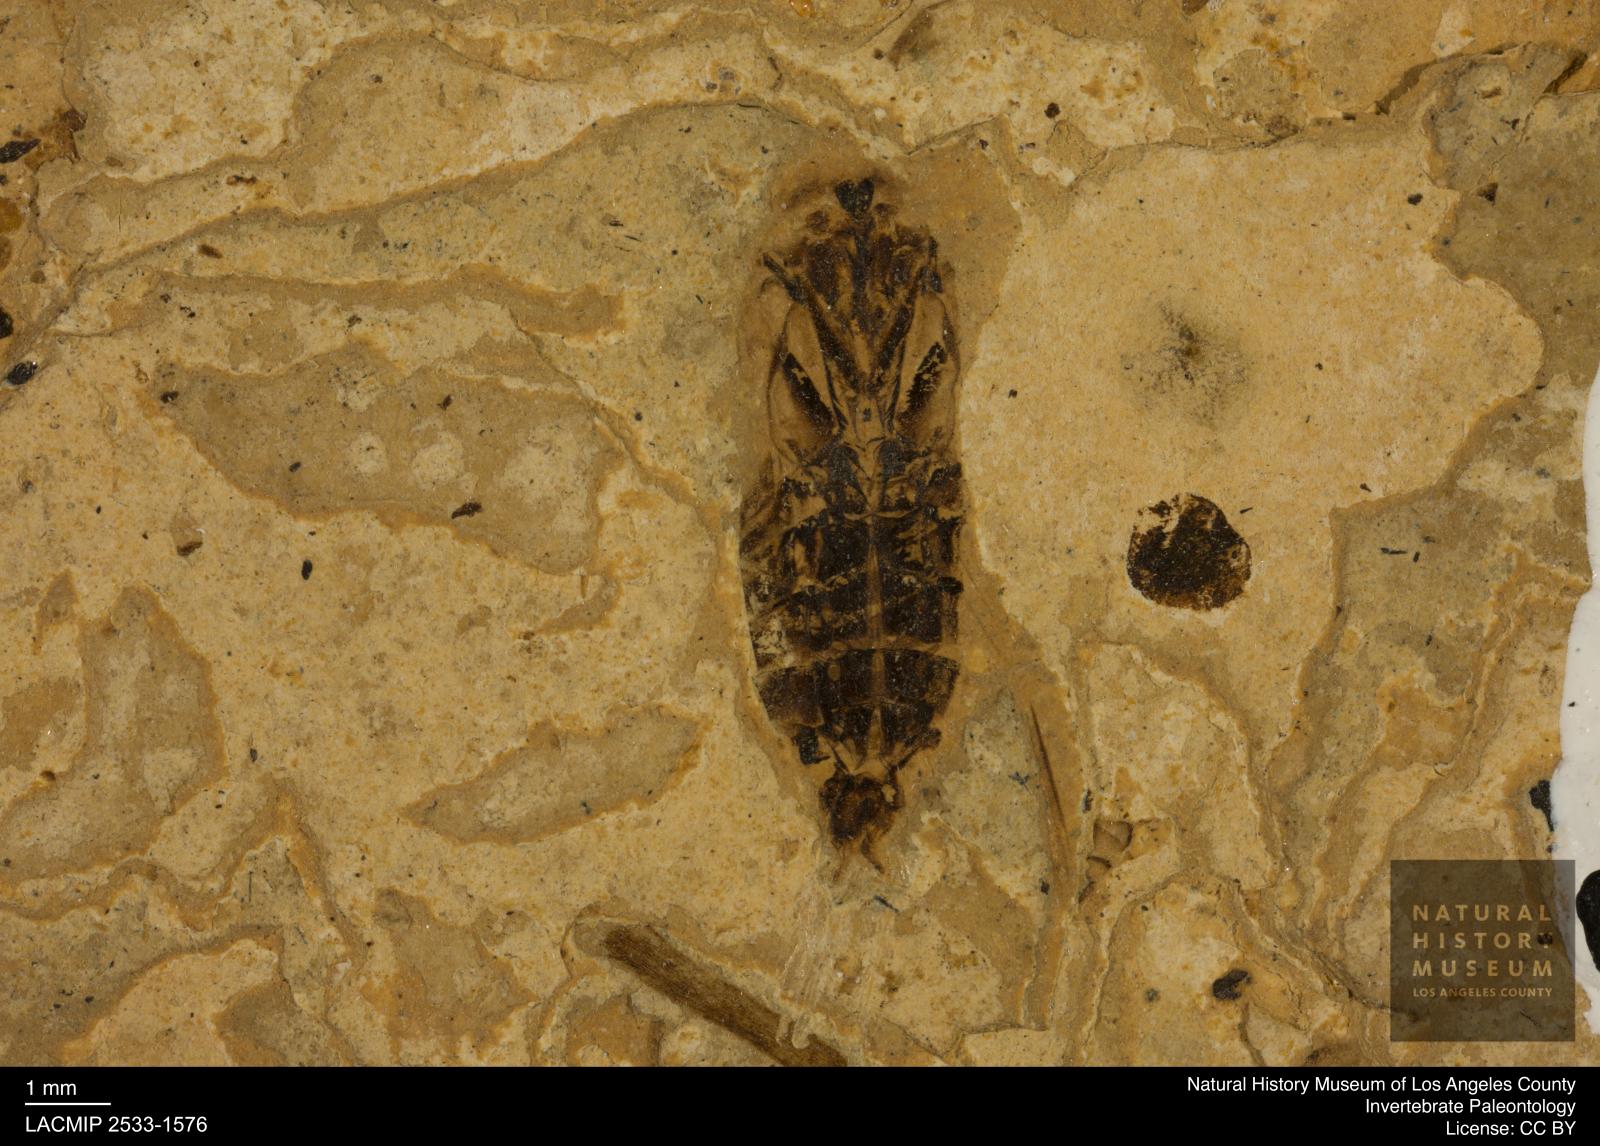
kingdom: Animalia
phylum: Arthropoda
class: Insecta
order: Hemiptera
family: Notonectidae
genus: Notonecta
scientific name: Notonecta
